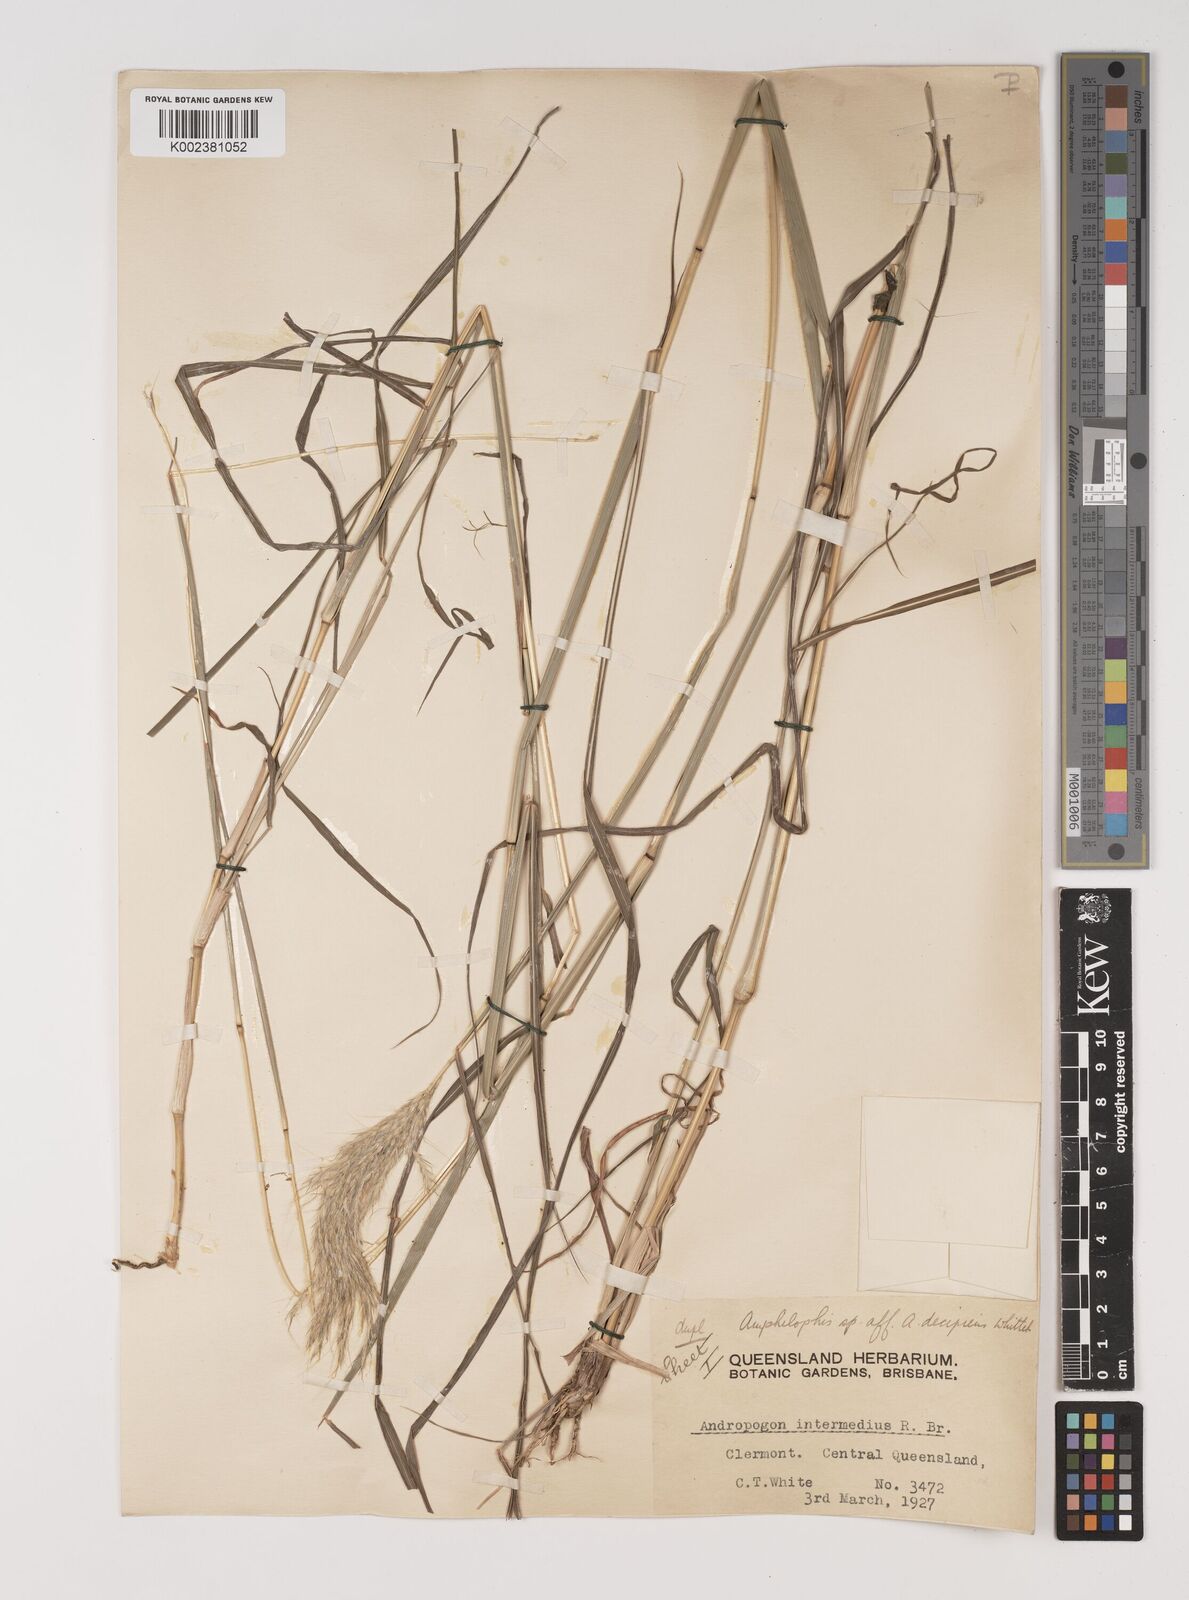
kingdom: Plantae
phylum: Tracheophyta
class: Liliopsida
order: Poales
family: Poaceae
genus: Bothriochloa
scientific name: Bothriochloa decipiens
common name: Pitted-bluegrass
